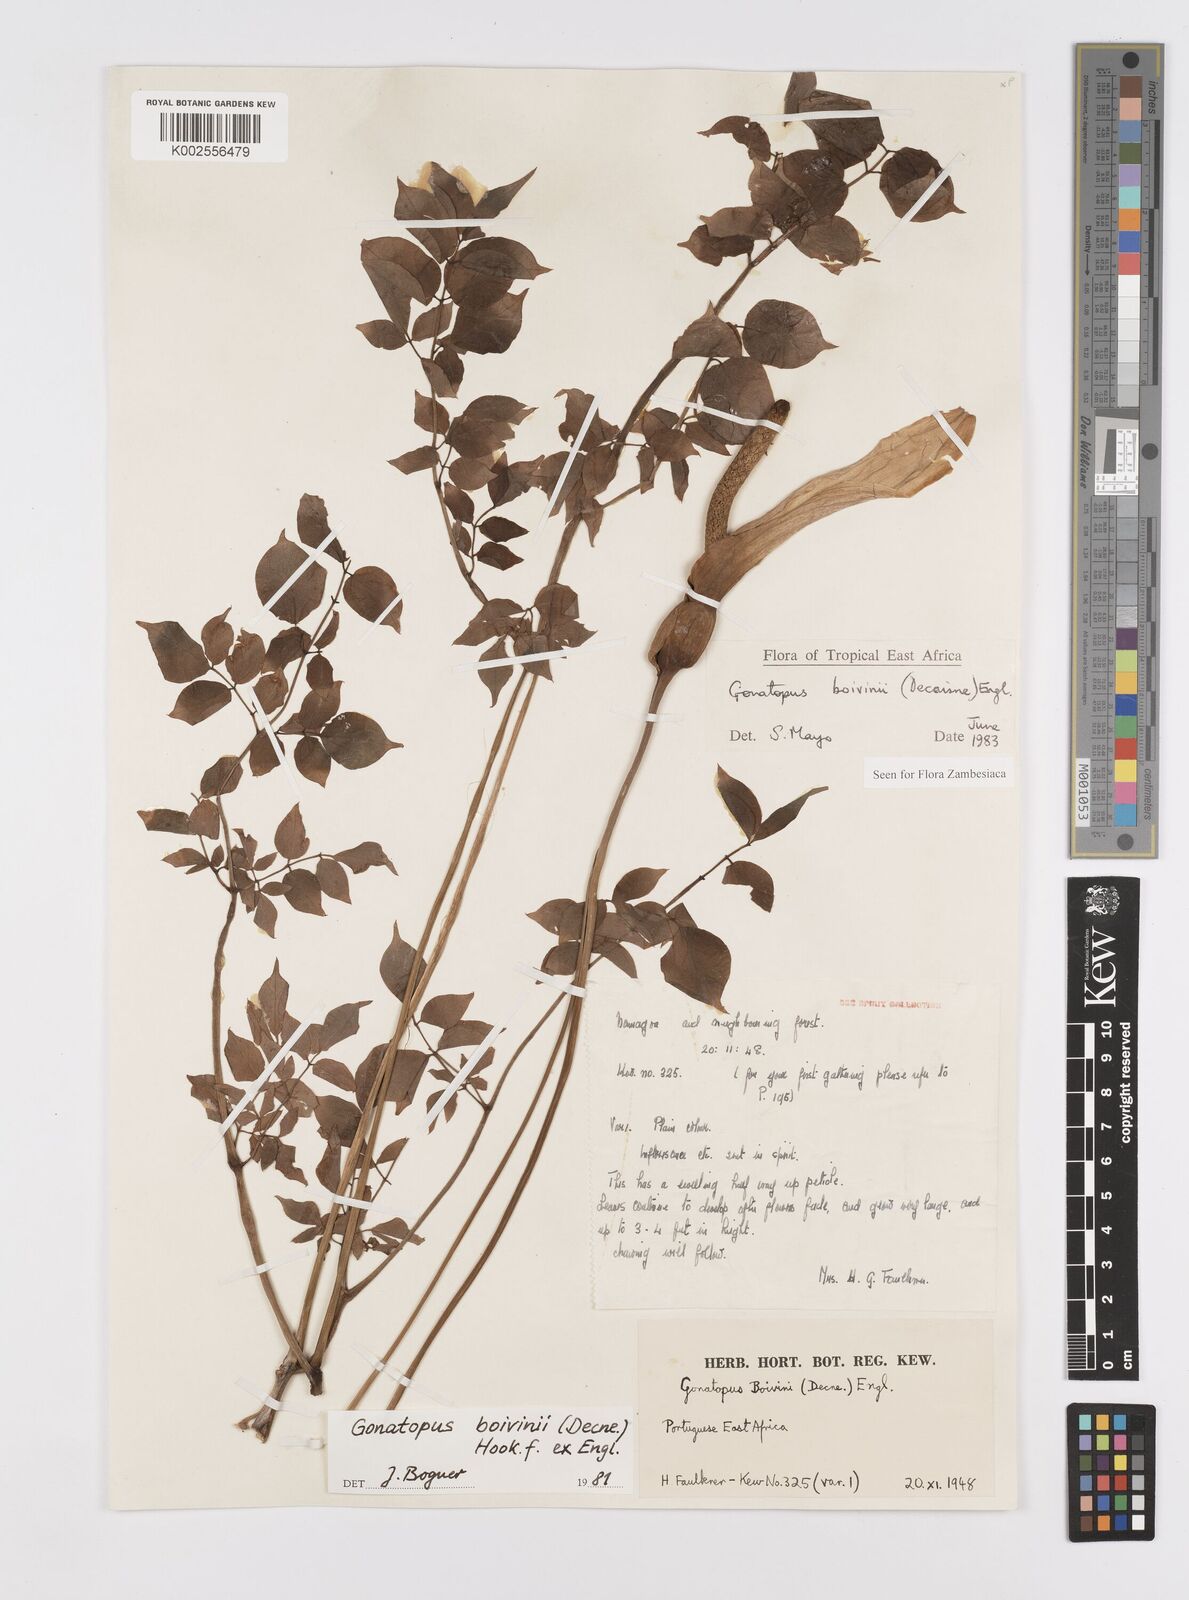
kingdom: Plantae
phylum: Tracheophyta
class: Liliopsida
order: Alismatales
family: Araceae
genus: Gonatopus
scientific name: Gonatopus boivinii
